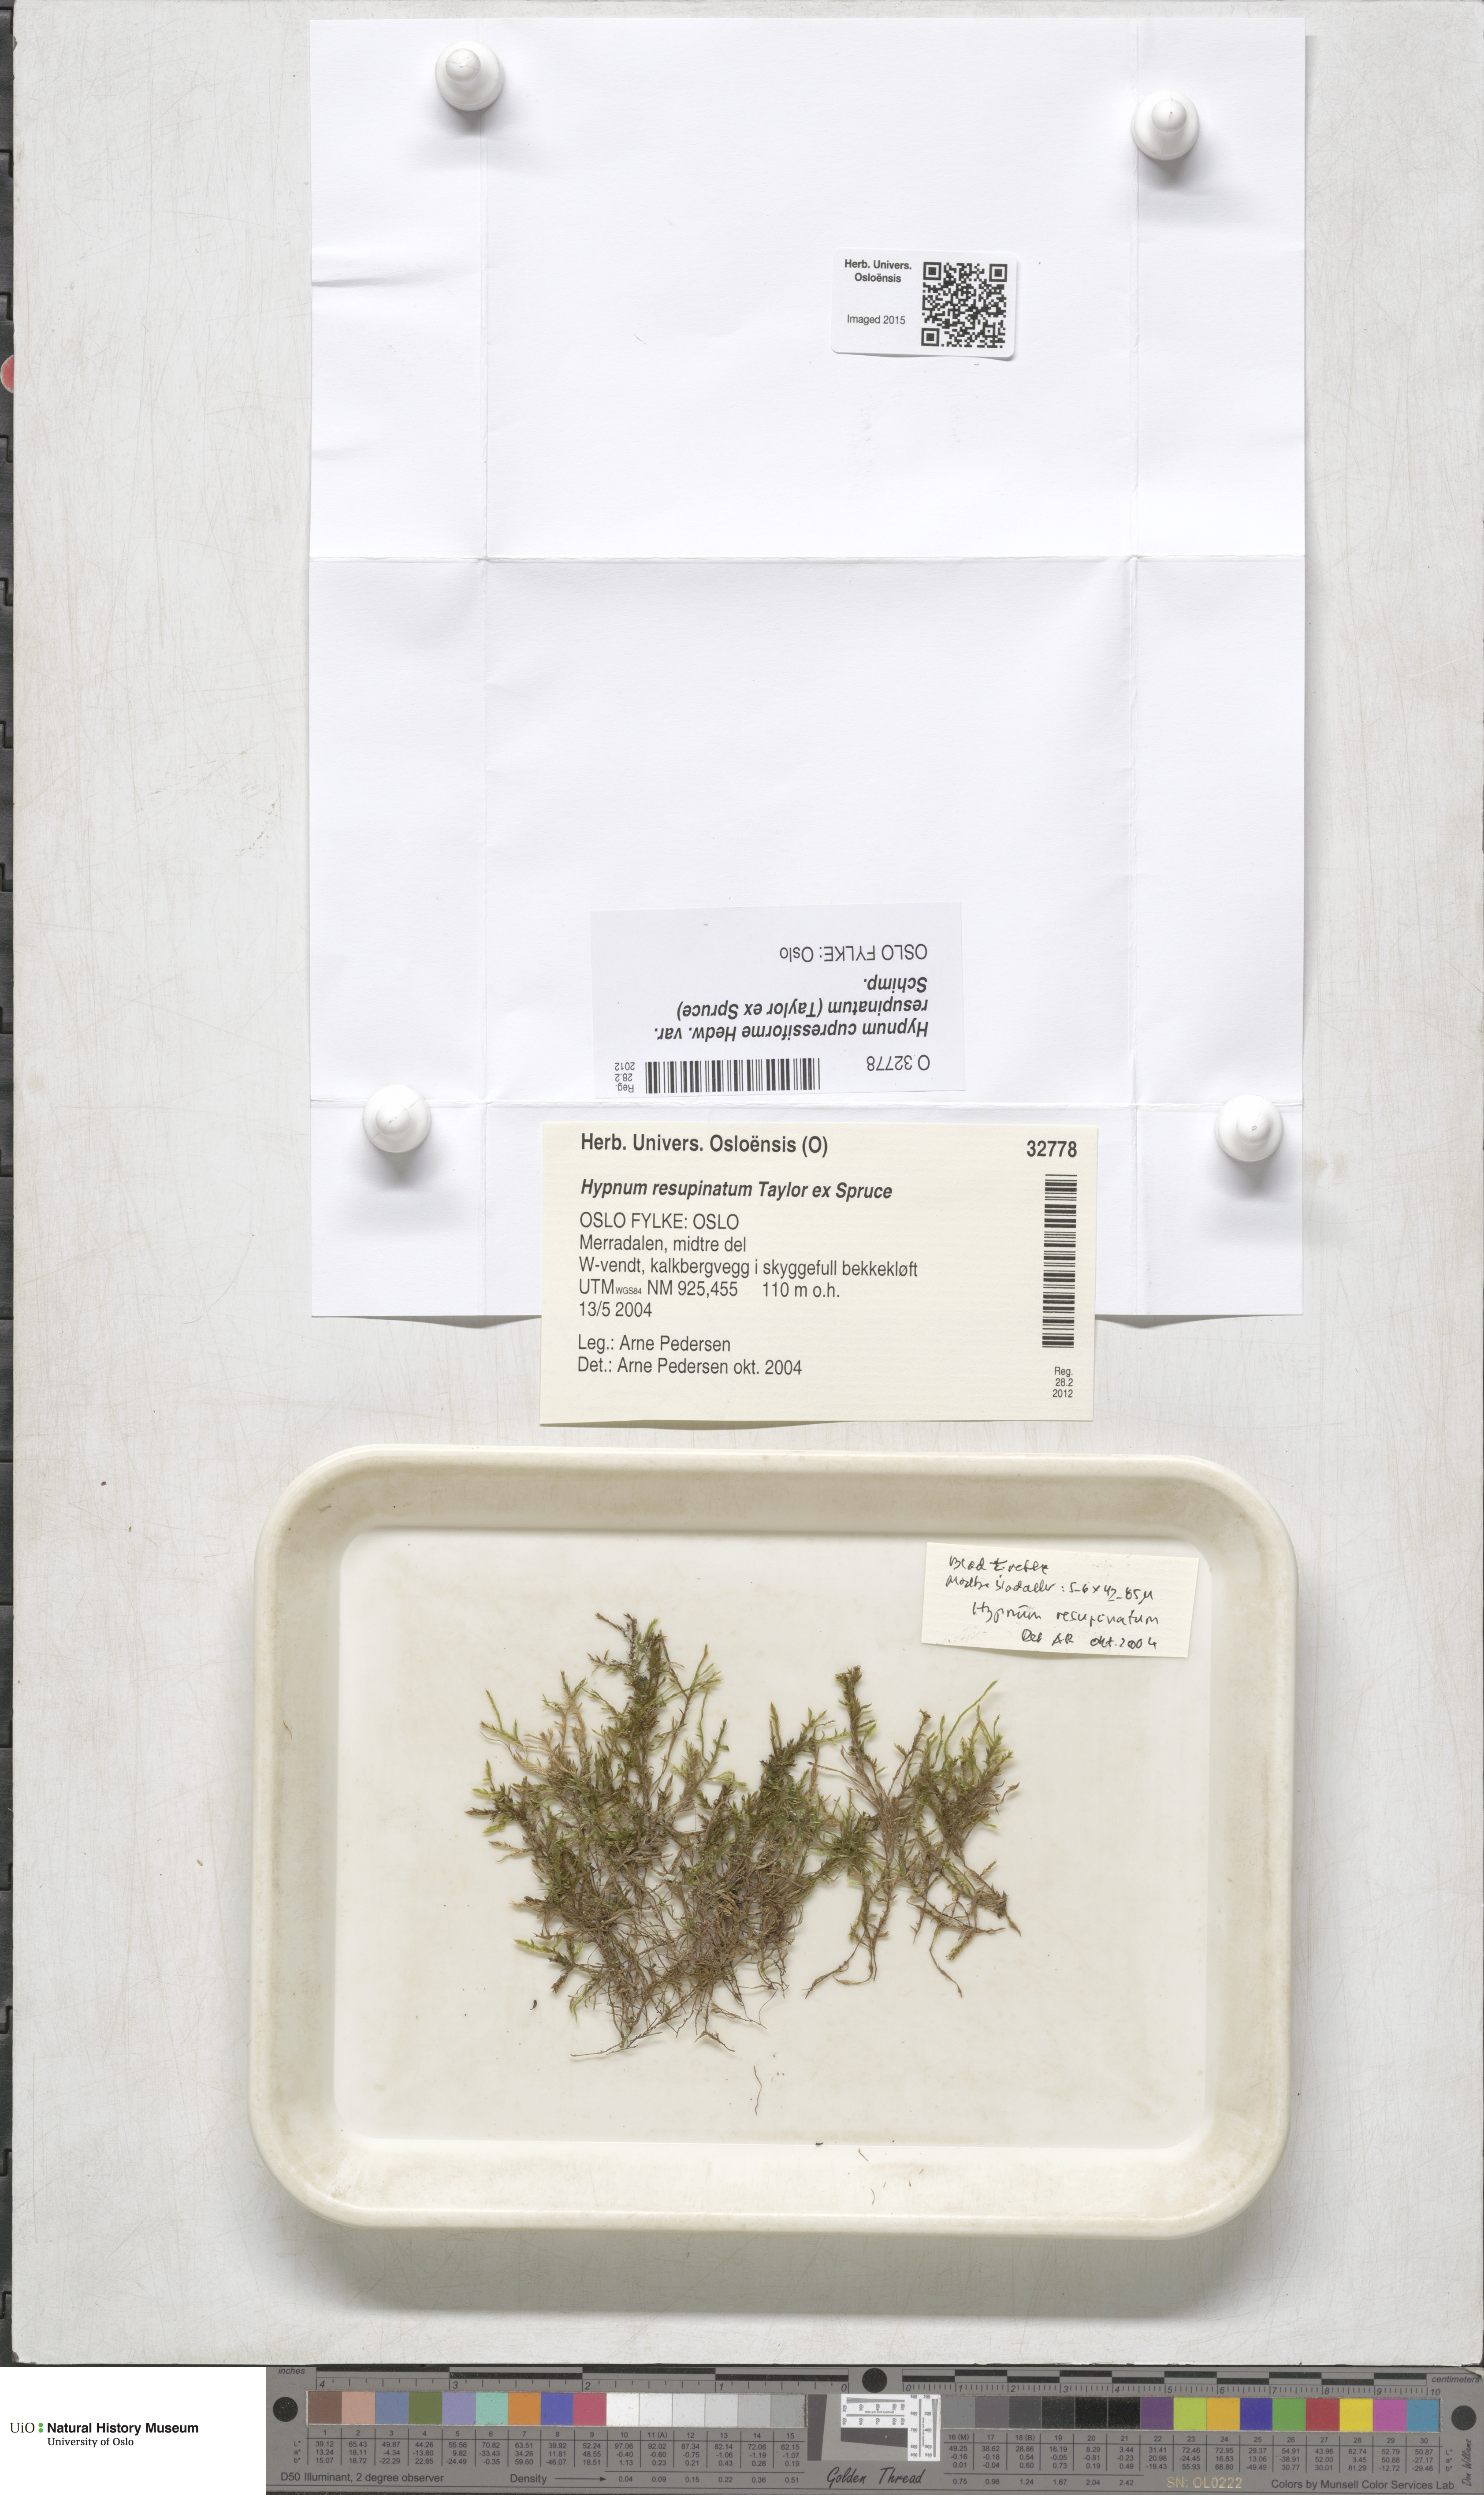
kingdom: Plantae
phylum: Bryophyta
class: Bryopsida
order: Hypnales
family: Hypnaceae
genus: Hypnum
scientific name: Hypnum resupinatum
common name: Supine plait-moss
